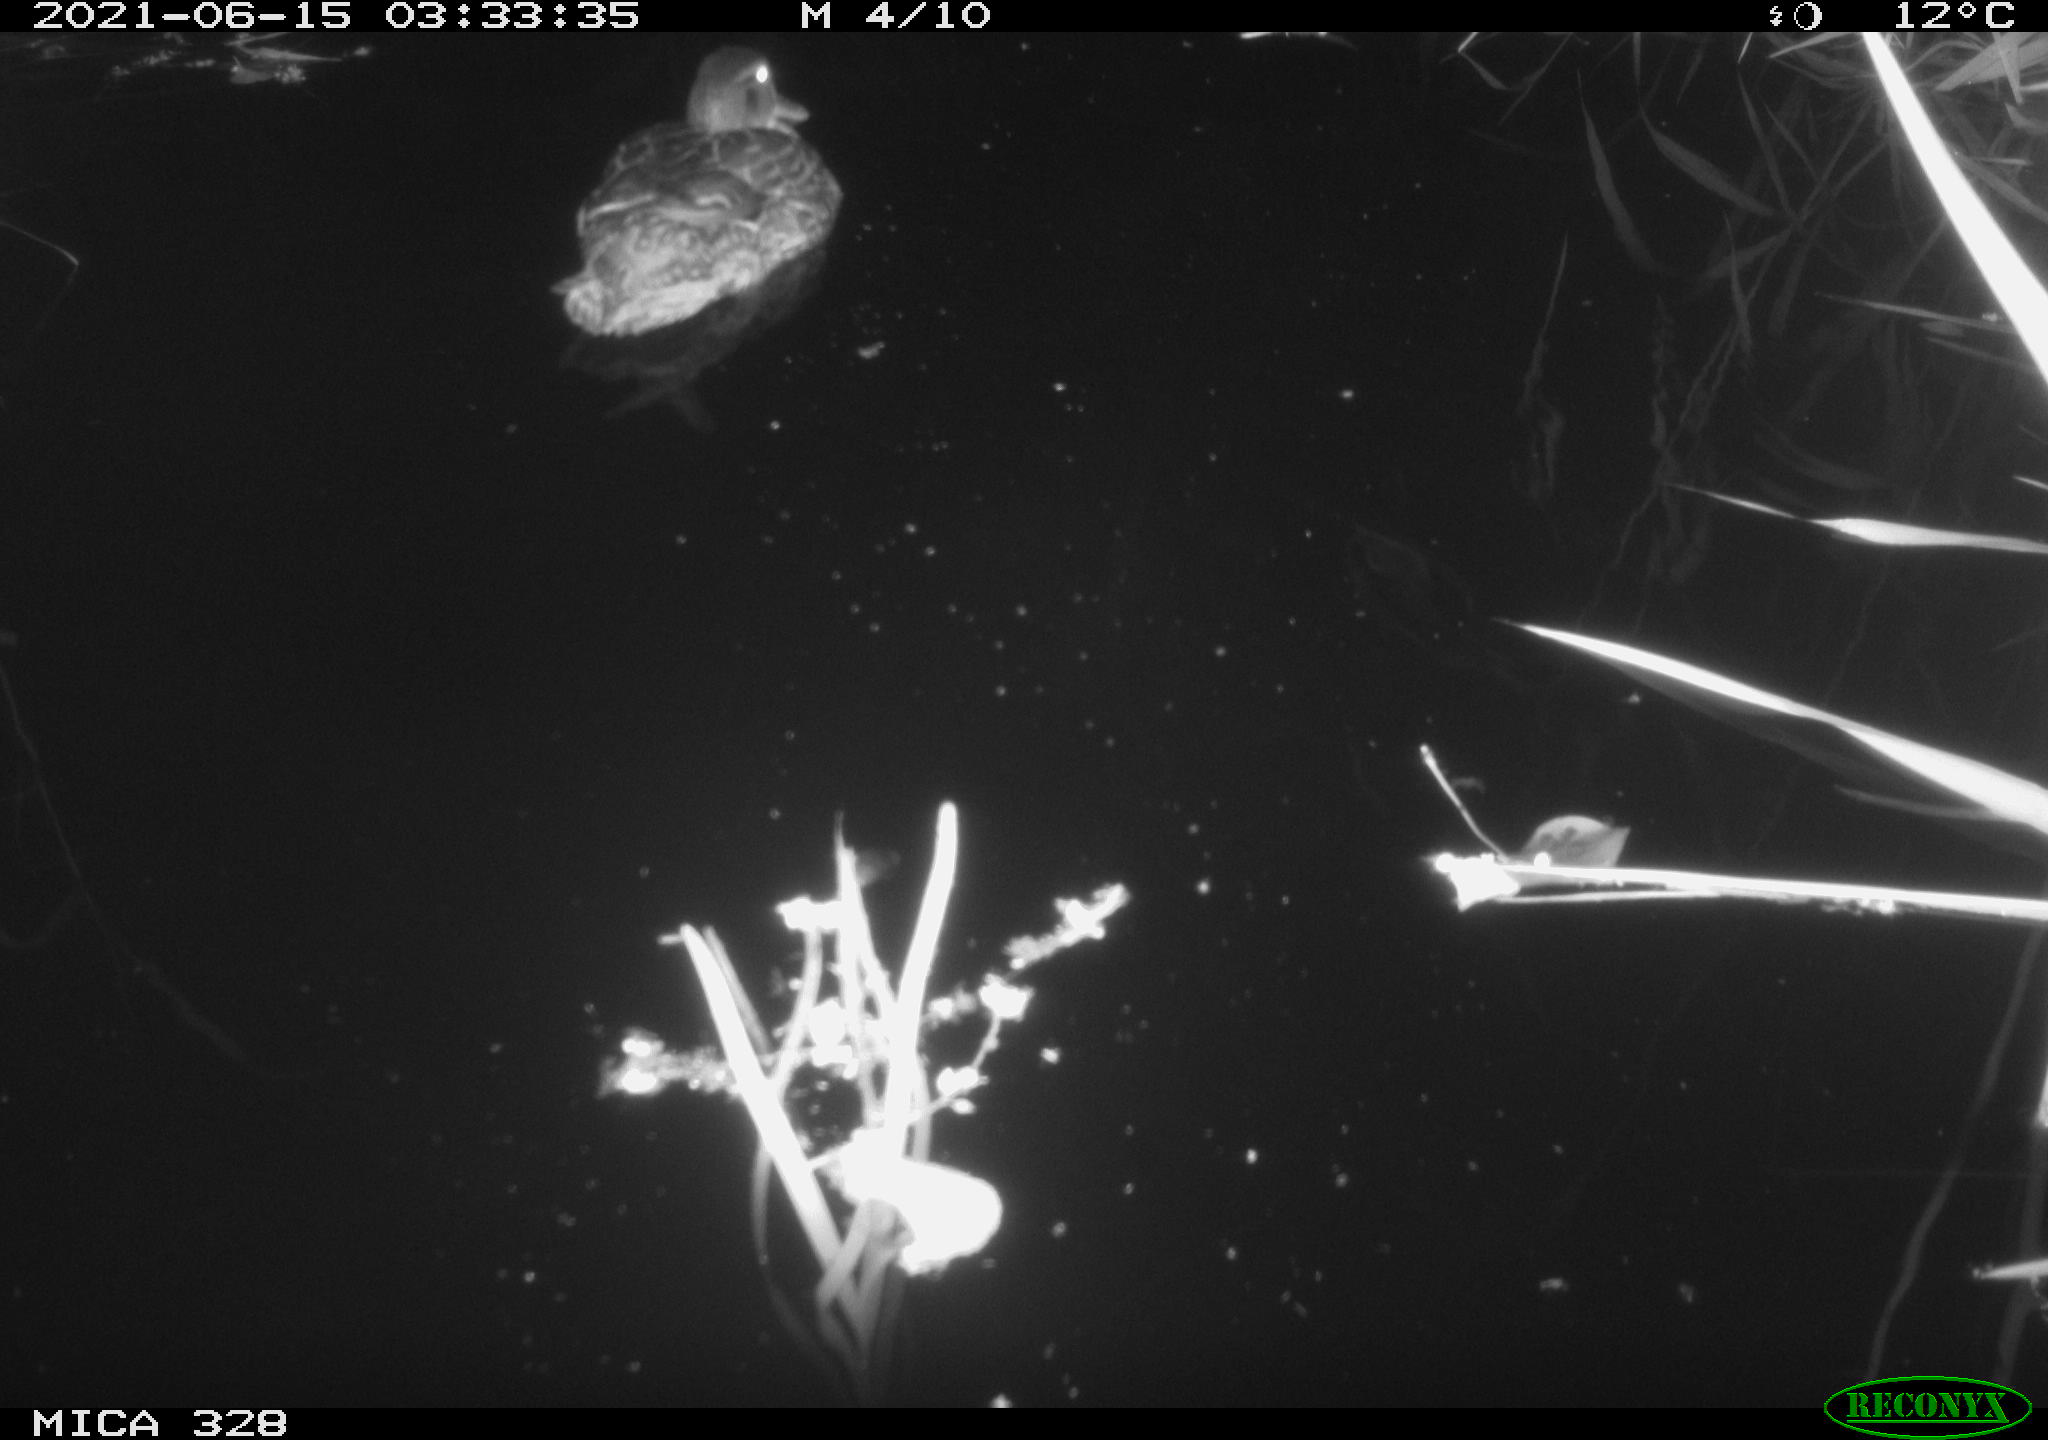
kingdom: Animalia
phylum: Chordata
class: Aves
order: Anseriformes
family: Anatidae
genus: Anas
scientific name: Anas platyrhynchos
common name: Mallard
